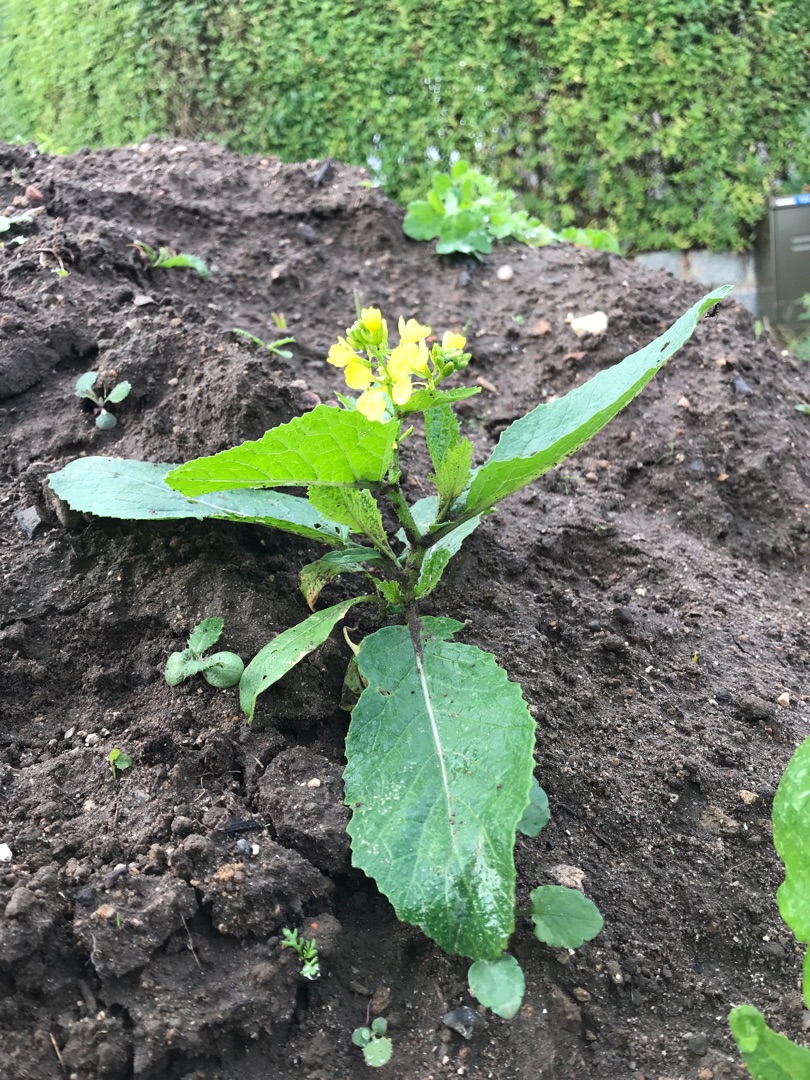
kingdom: Plantae
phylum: Tracheophyta
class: Magnoliopsida
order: Brassicales
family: Brassicaceae
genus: Sinapis
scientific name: Sinapis arvensis
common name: Ager-sennep
